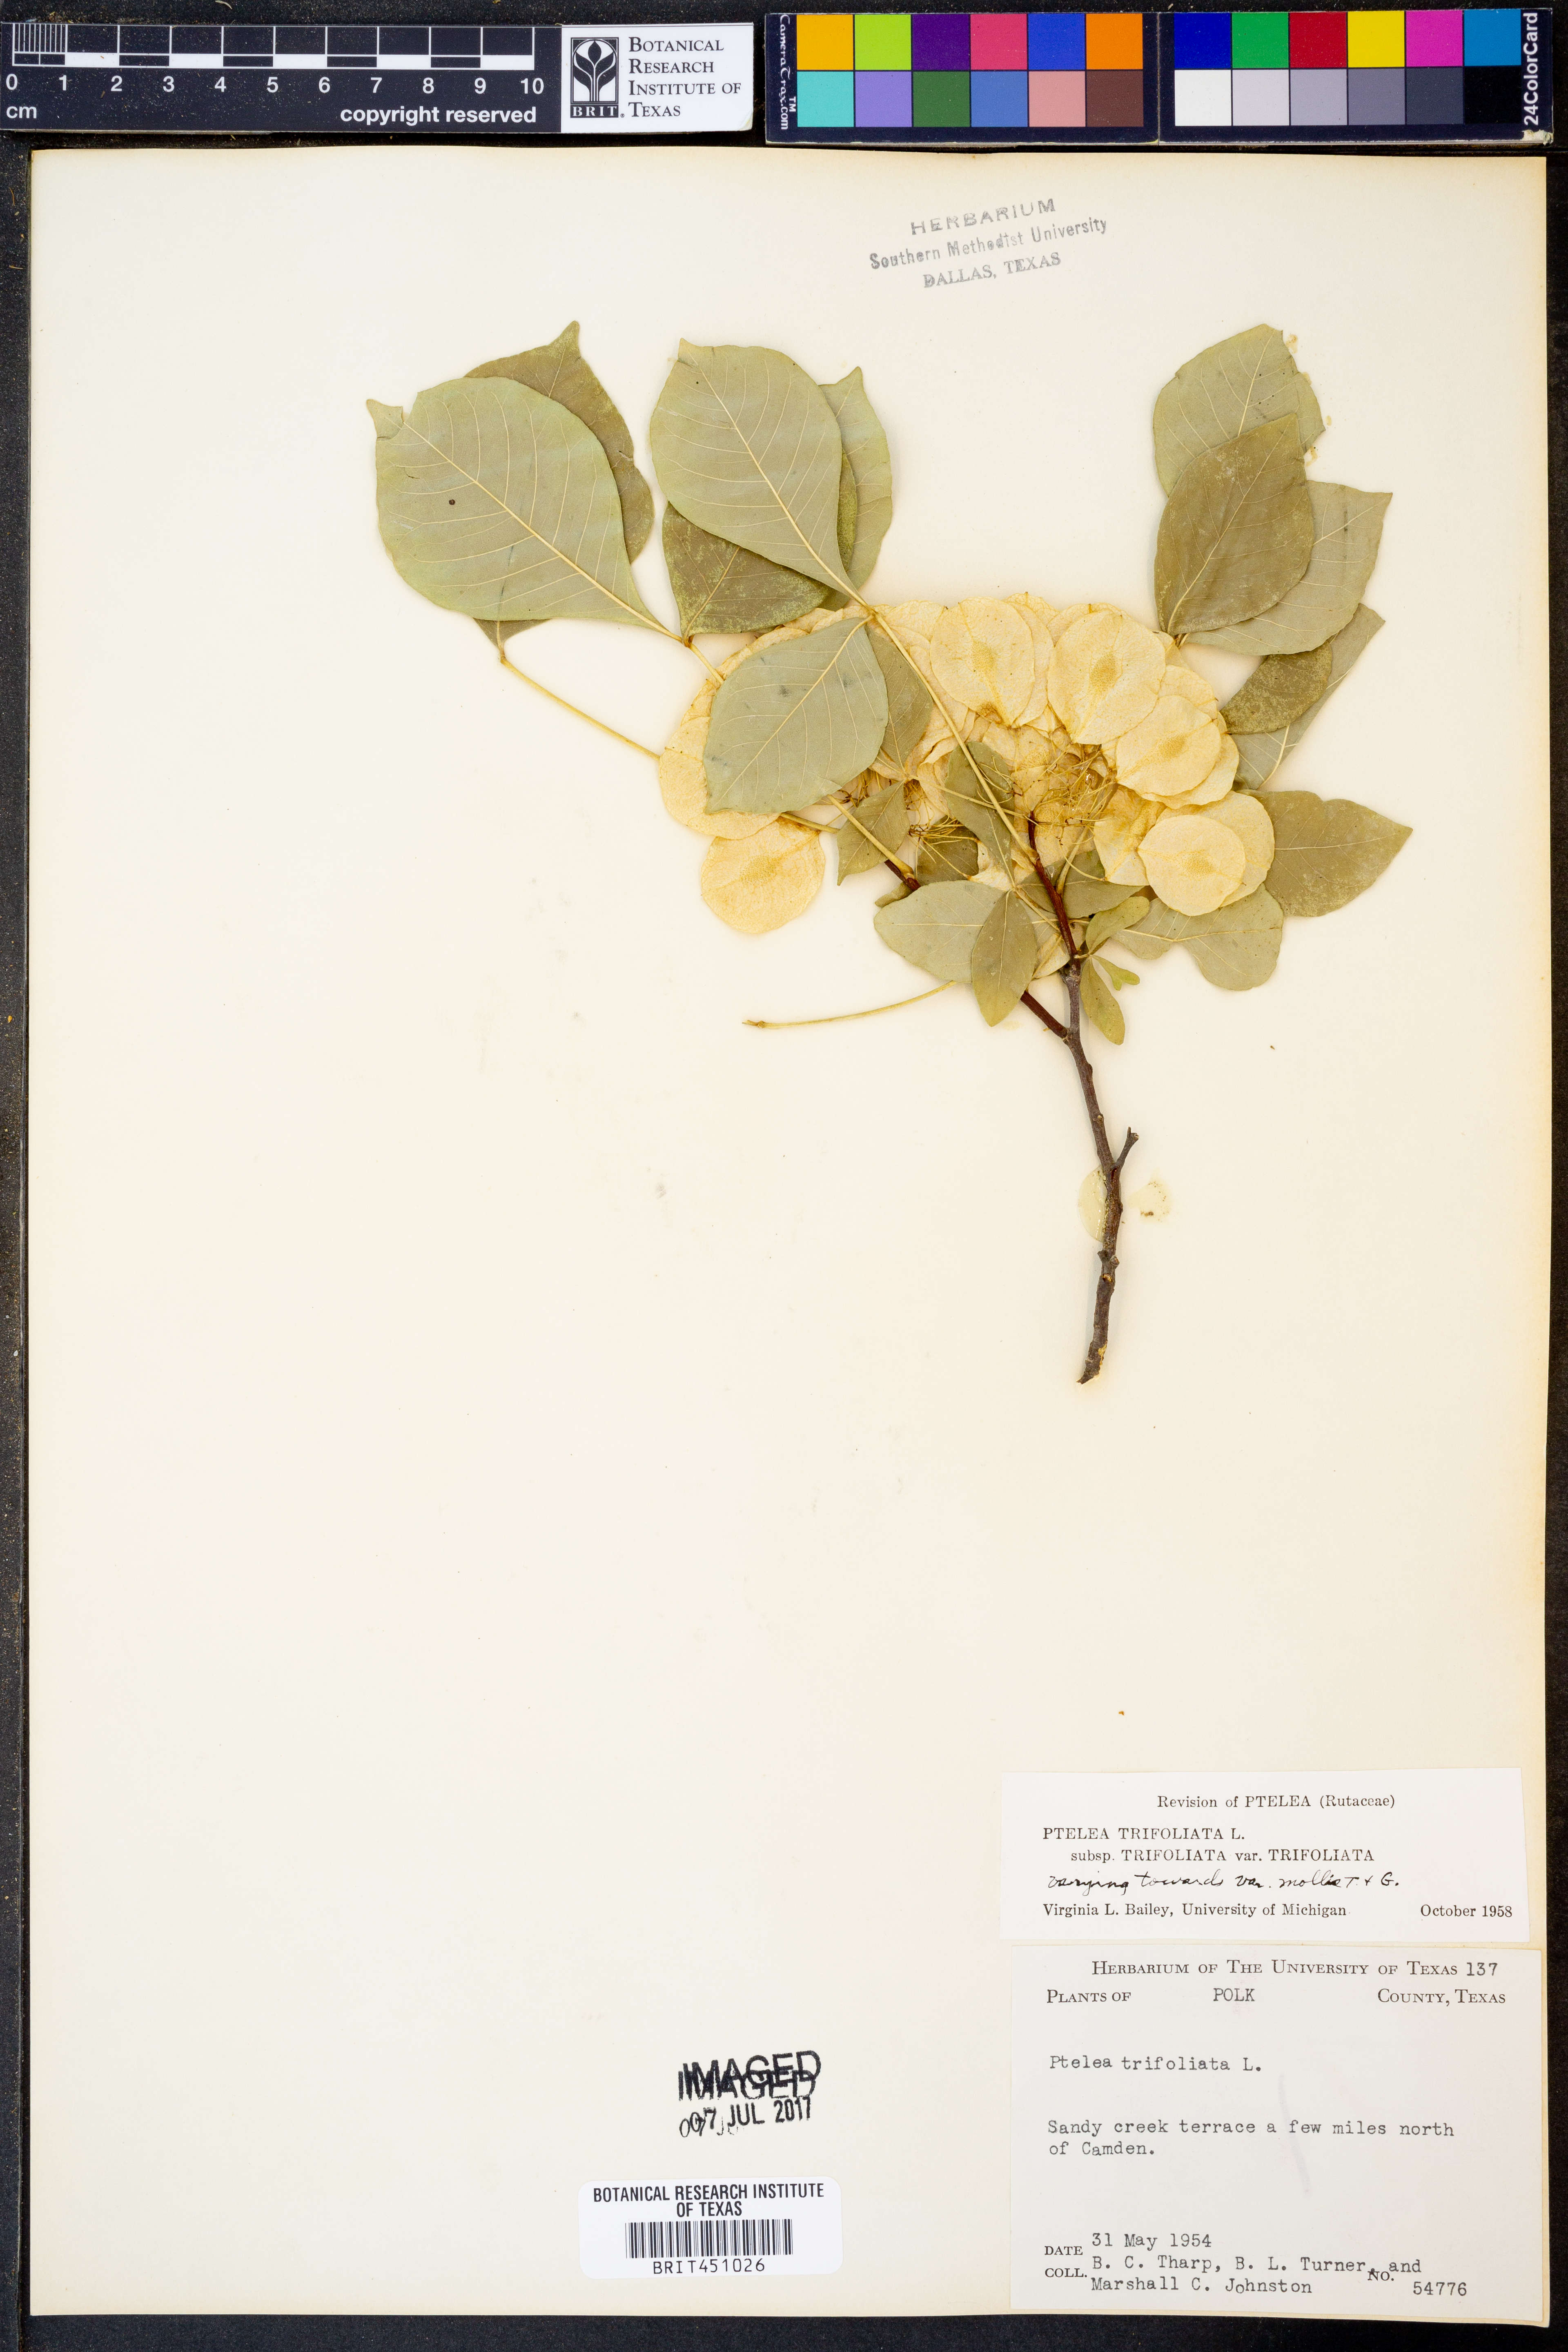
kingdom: Plantae
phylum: Tracheophyta
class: Magnoliopsida
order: Sapindales
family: Rutaceae
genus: Ptelea
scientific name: Ptelea trifoliata
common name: Common hop-tree
